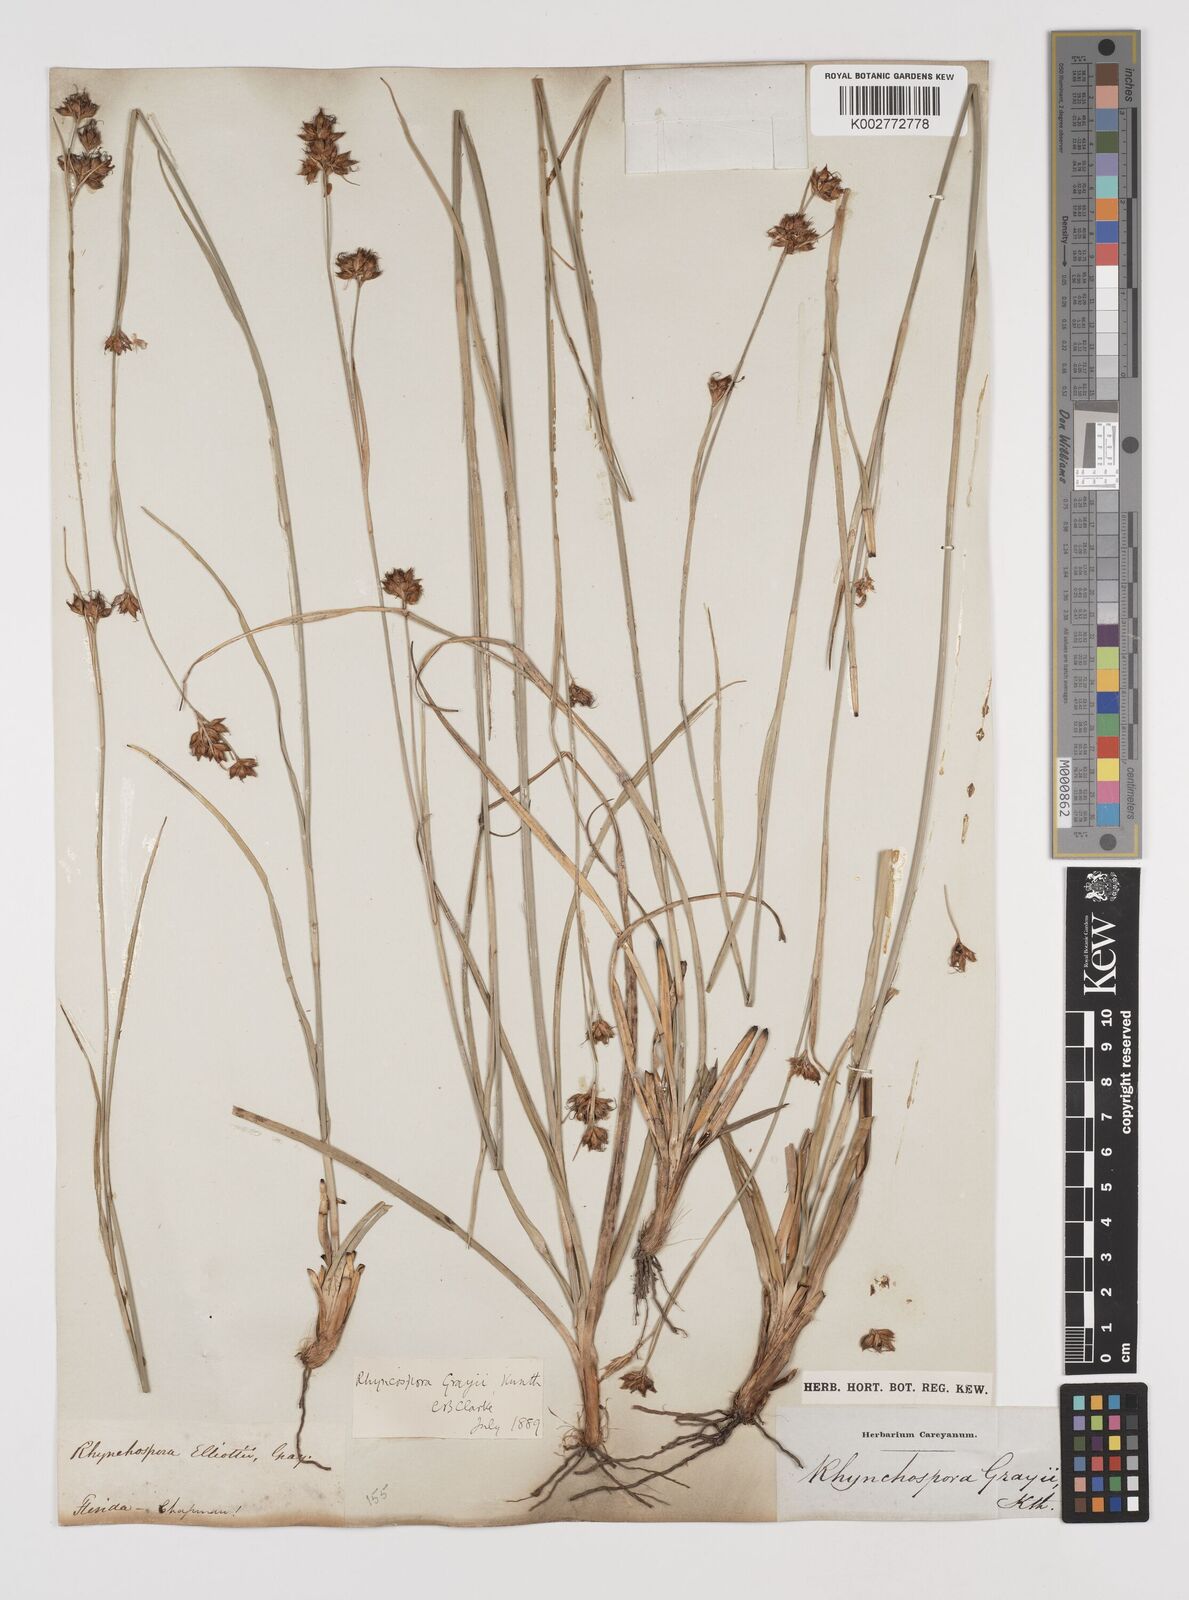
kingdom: Plantae
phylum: Tracheophyta
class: Liliopsida
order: Poales
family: Cyperaceae
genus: Rhynchospora
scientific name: Rhynchospora grayi
